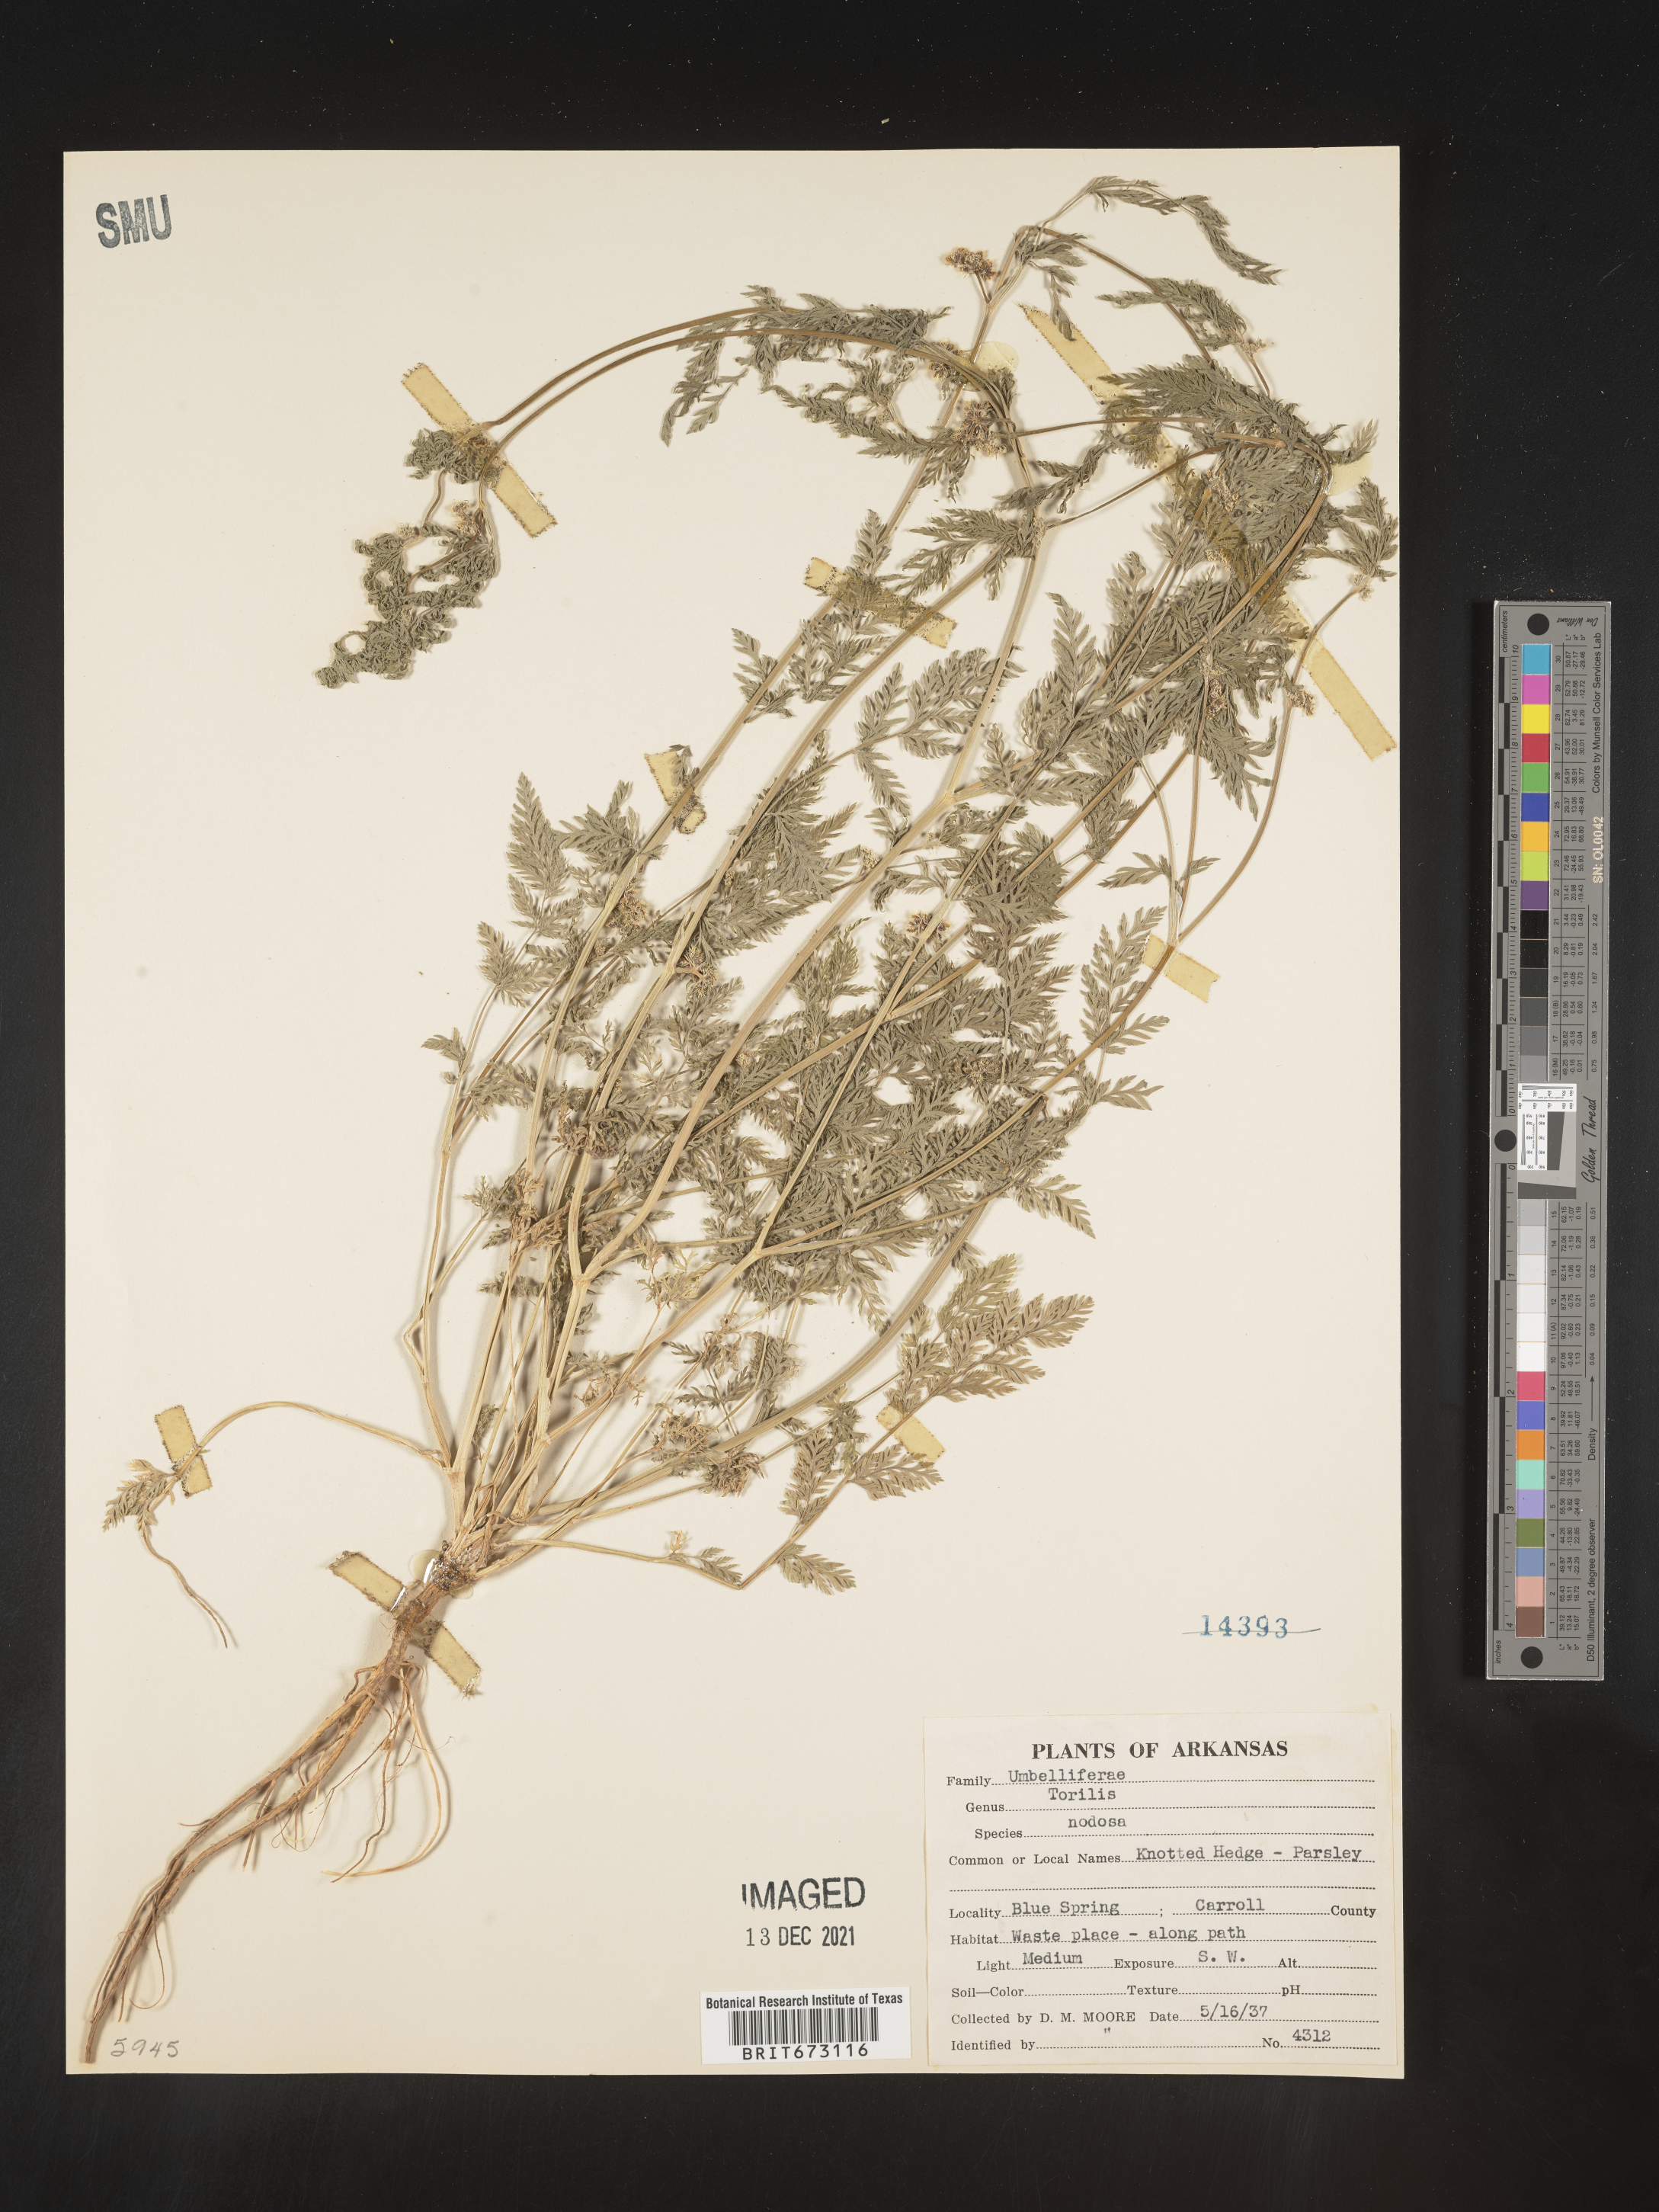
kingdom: Plantae
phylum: Tracheophyta
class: Magnoliopsida
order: Apiales
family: Apiaceae
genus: Torilis
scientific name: Torilis nodosa
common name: Knotted hedge-parsley
